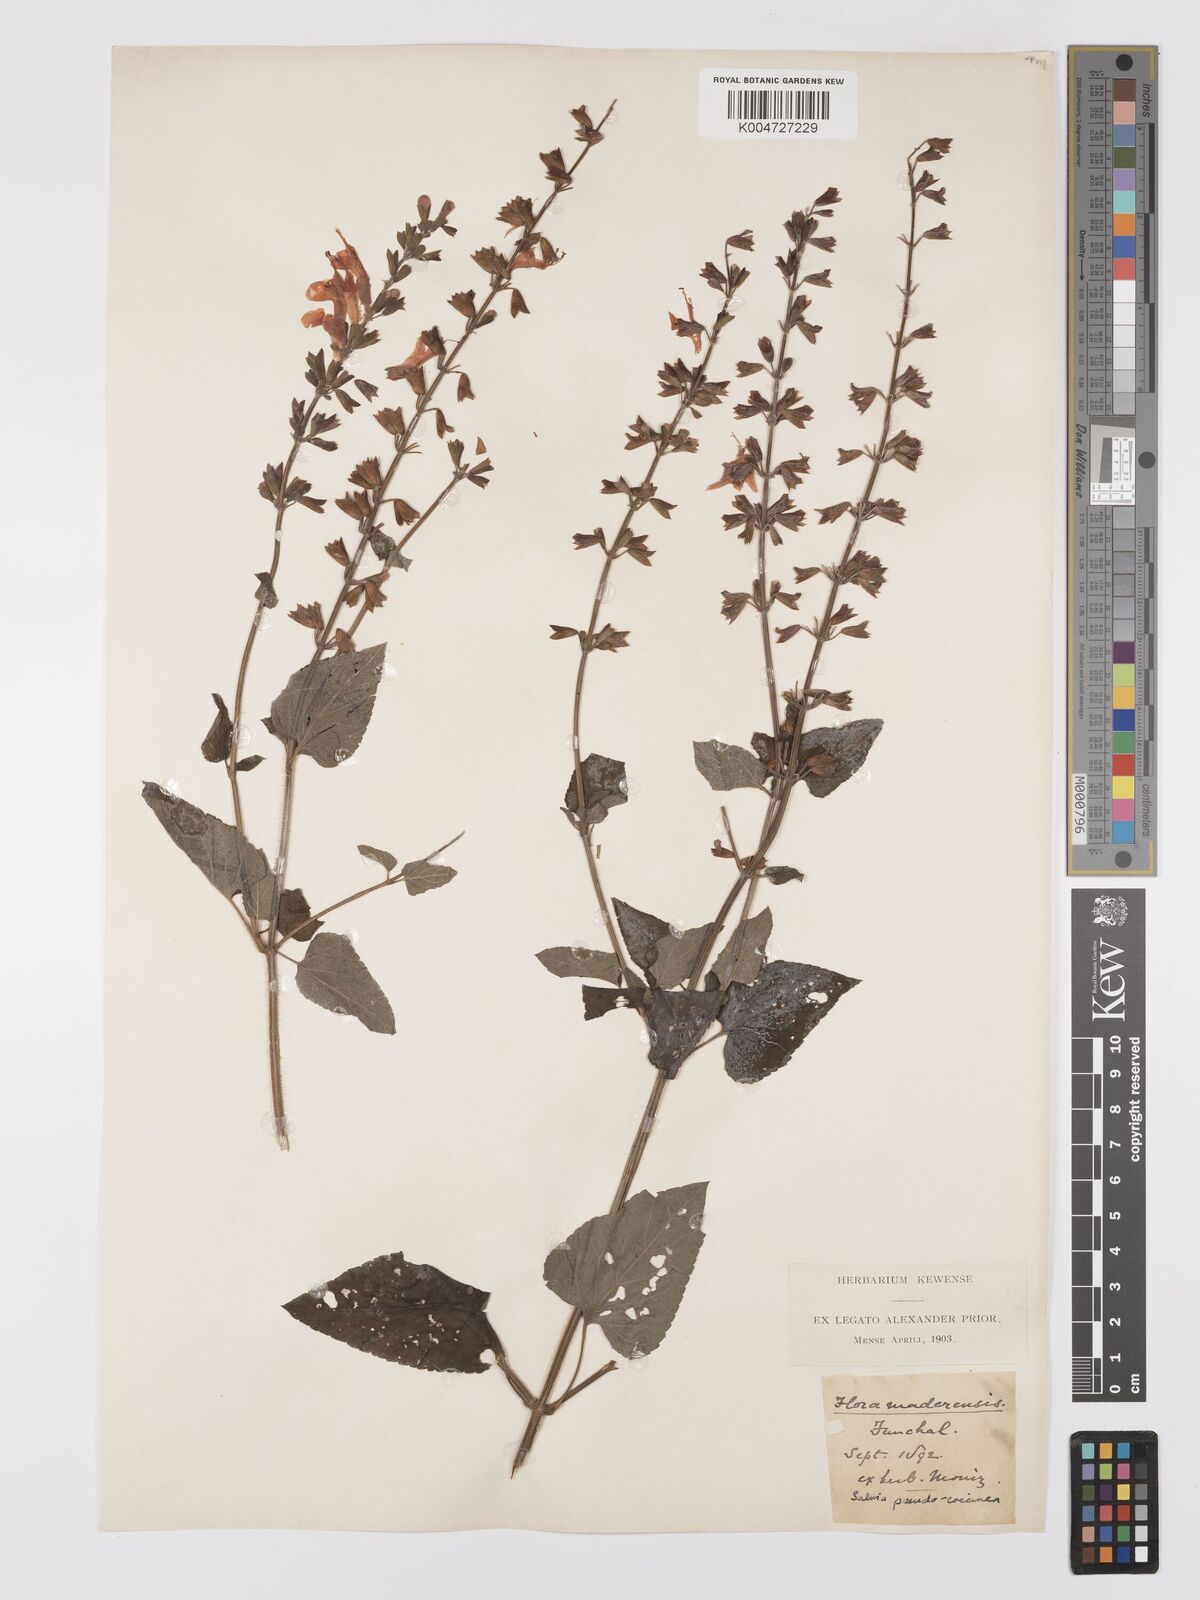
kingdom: Plantae
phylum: Tracheophyta
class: Magnoliopsida
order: Lamiales
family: Lamiaceae
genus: Salvia
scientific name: Salvia
